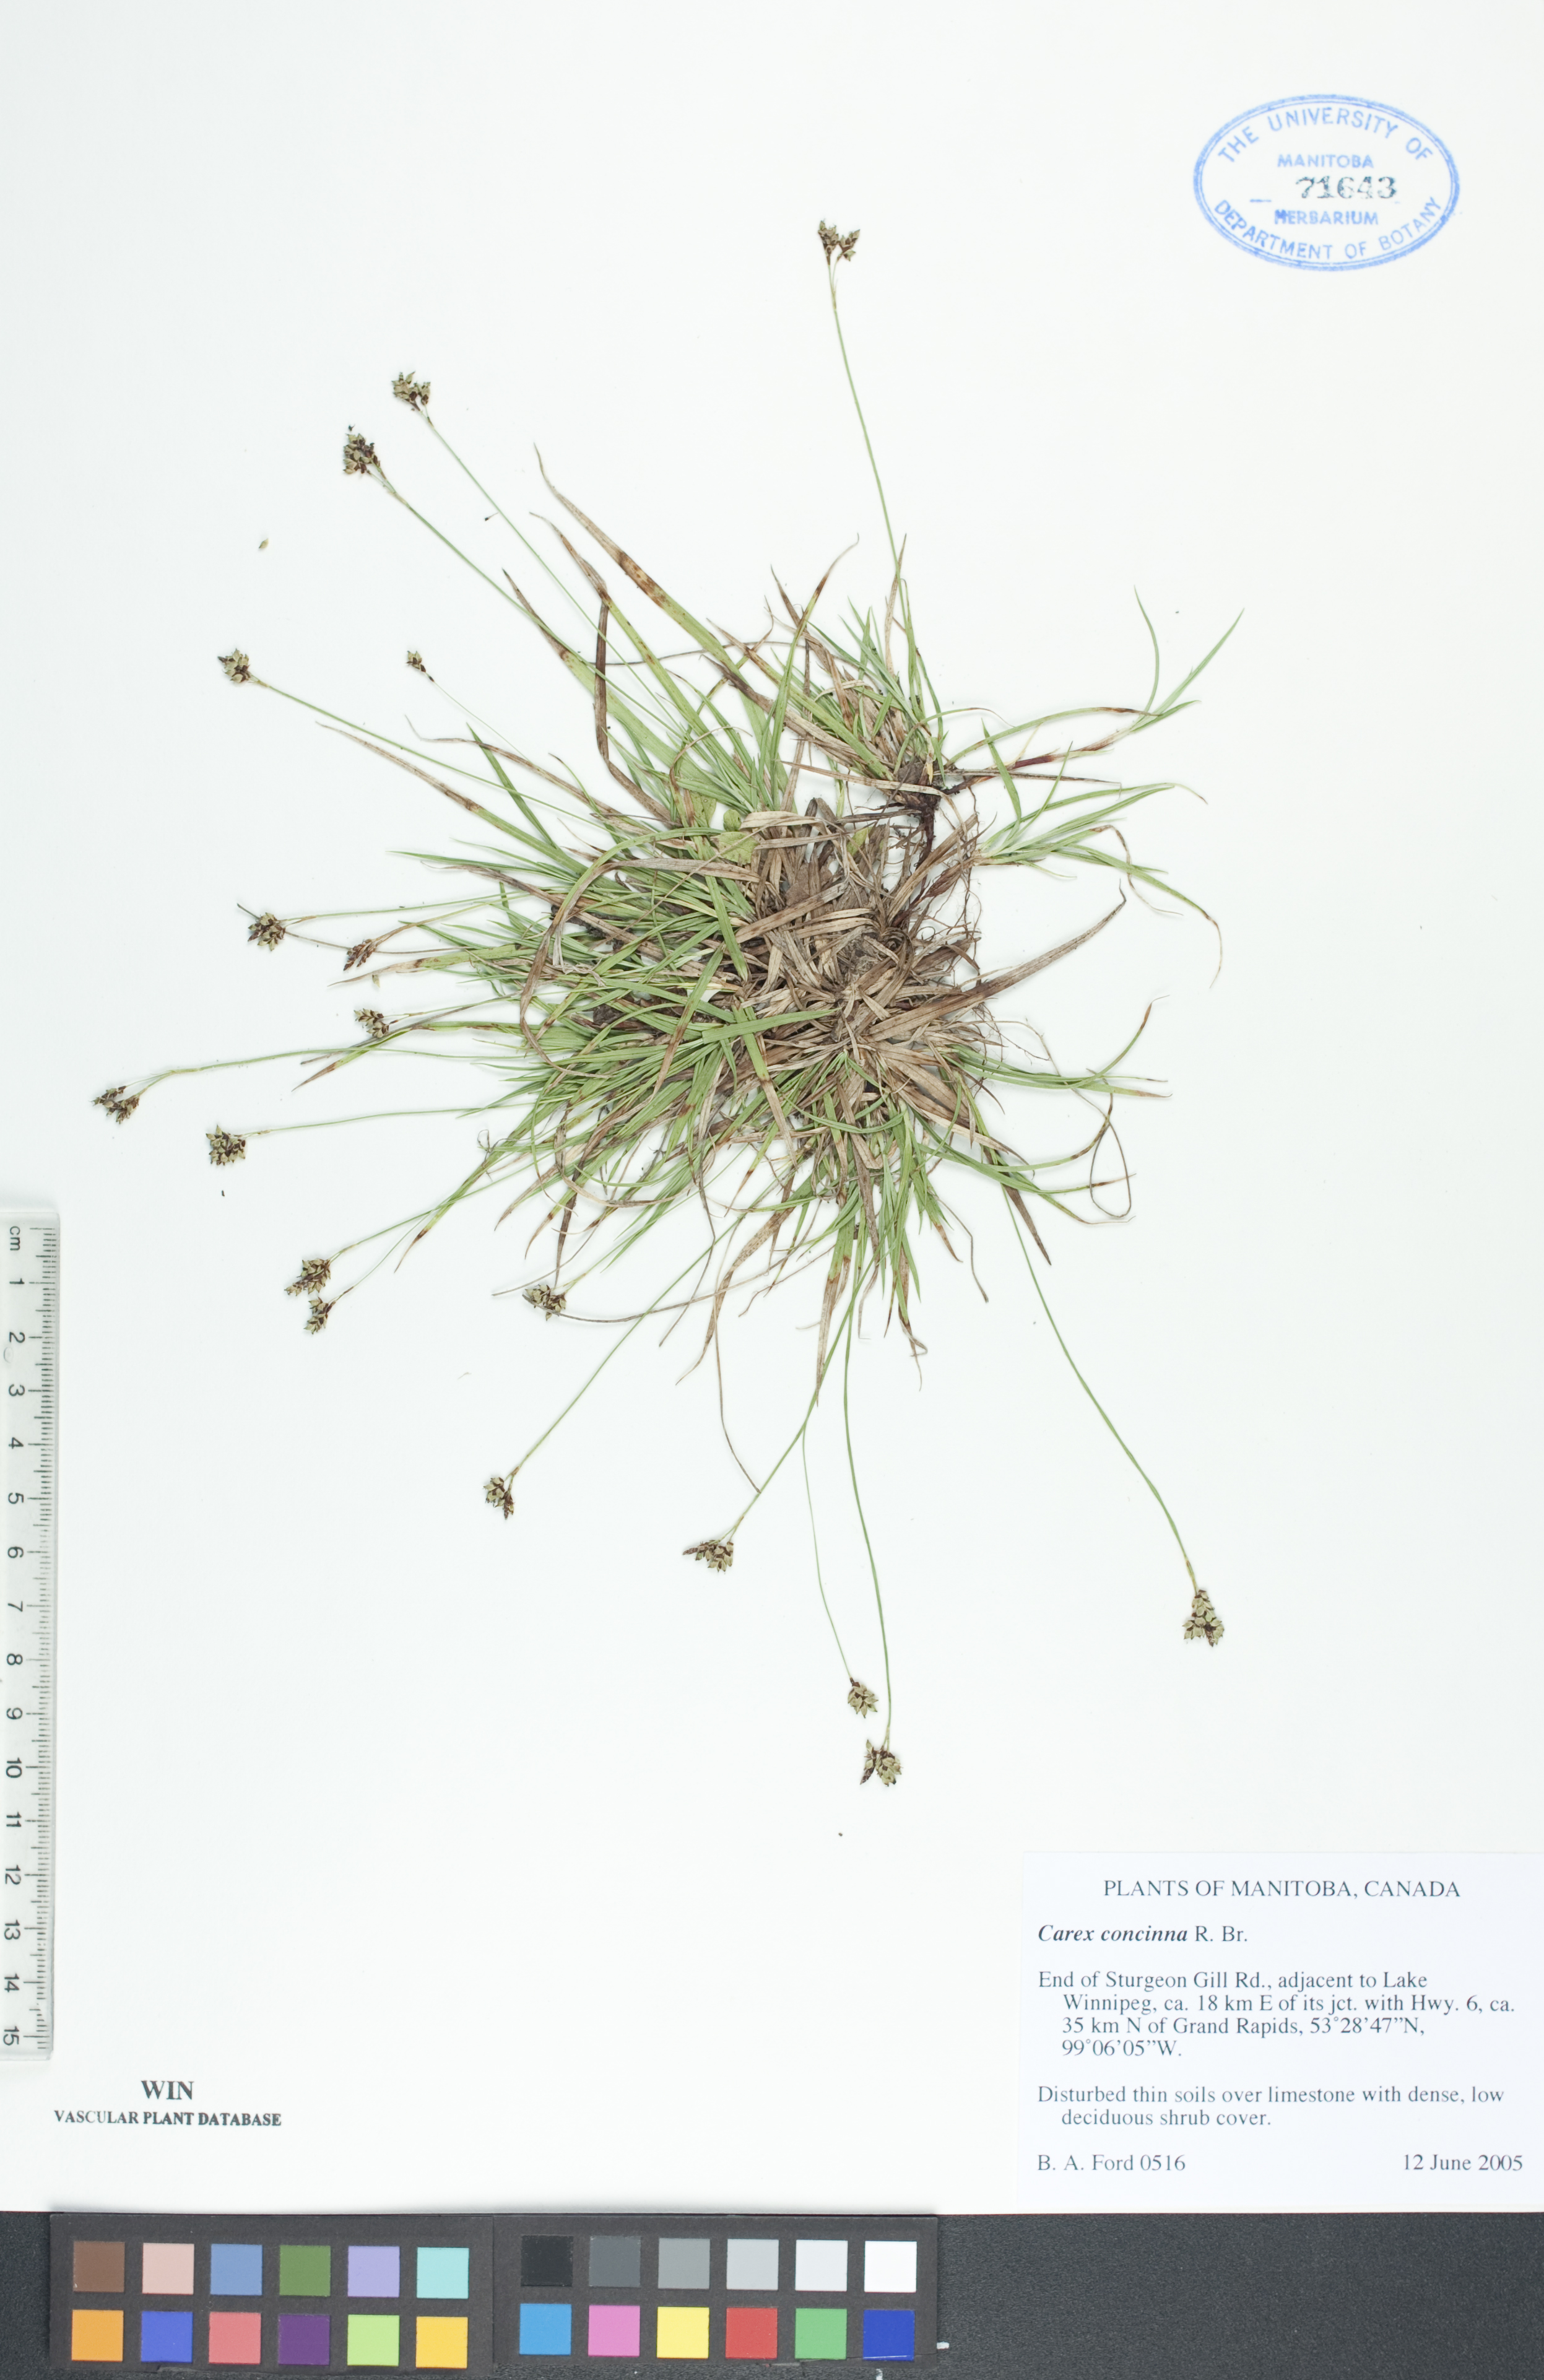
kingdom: Plantae
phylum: Tracheophyta
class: Liliopsida
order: Poales
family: Cyperaceae
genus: Carex
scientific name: Carex concinna
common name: Beautiful sedge
